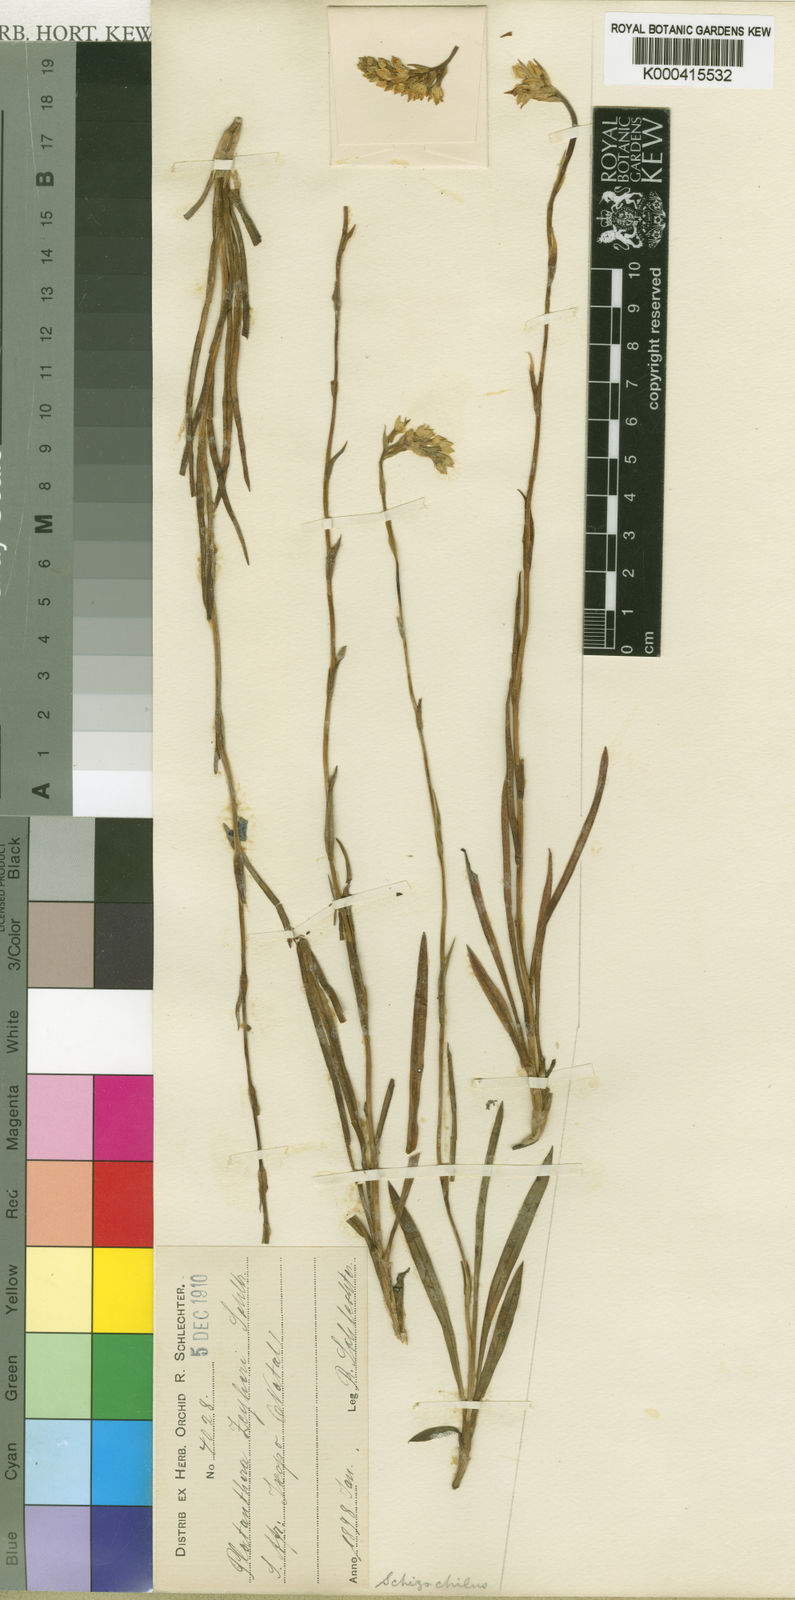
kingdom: Plantae
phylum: Tracheophyta
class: Liliopsida
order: Asparagales
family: Orchidaceae
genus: Schizochilus
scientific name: Schizochilus zeyheri
